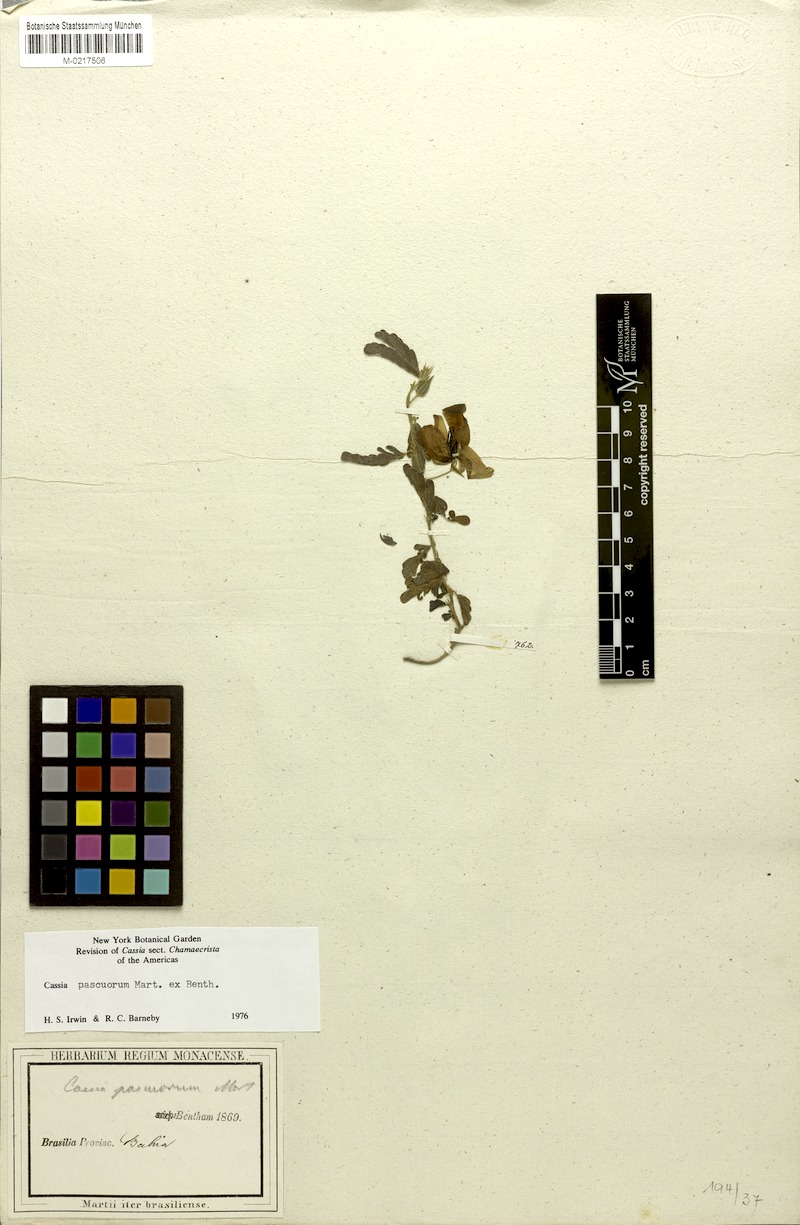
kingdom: Plantae
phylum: Tracheophyta
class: Magnoliopsida
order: Fabales
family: Fabaceae
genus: Chamaecrista
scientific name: Chamaecrista pascuorum
